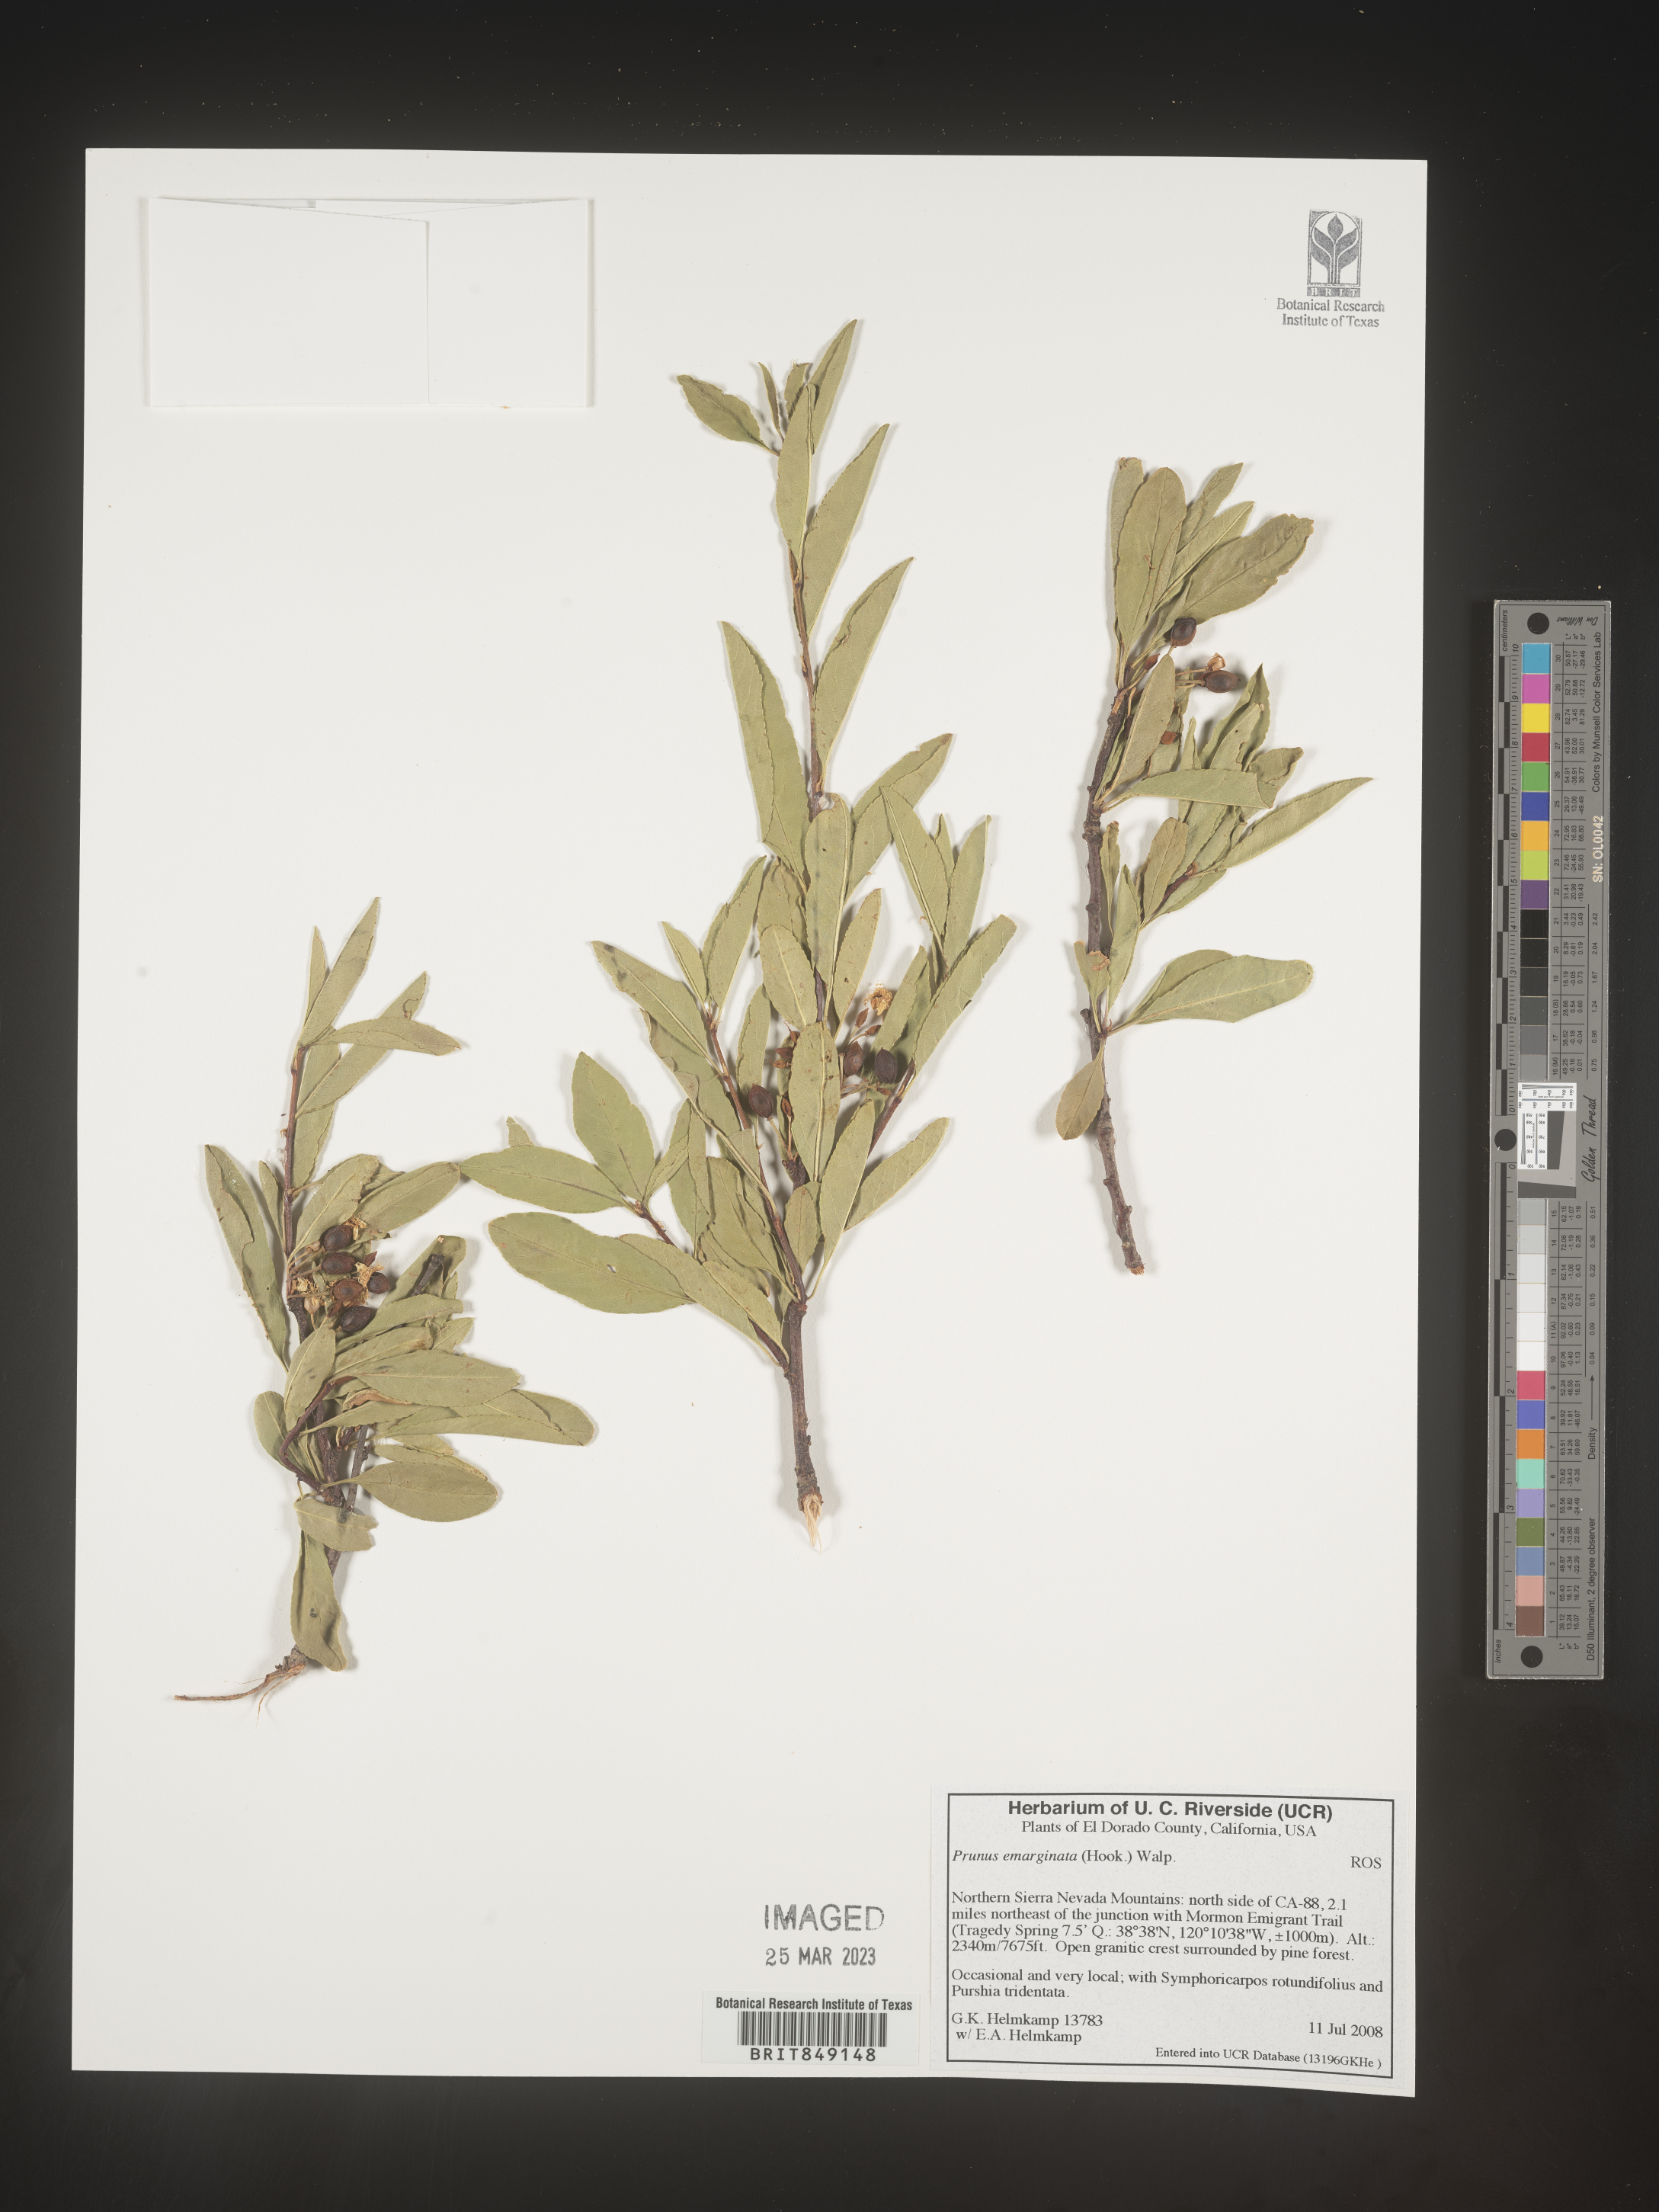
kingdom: Plantae
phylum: Tracheophyta
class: Magnoliopsida
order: Rosales
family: Rosaceae
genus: Prunus
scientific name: Prunus emarginata
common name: Bitter cherry
